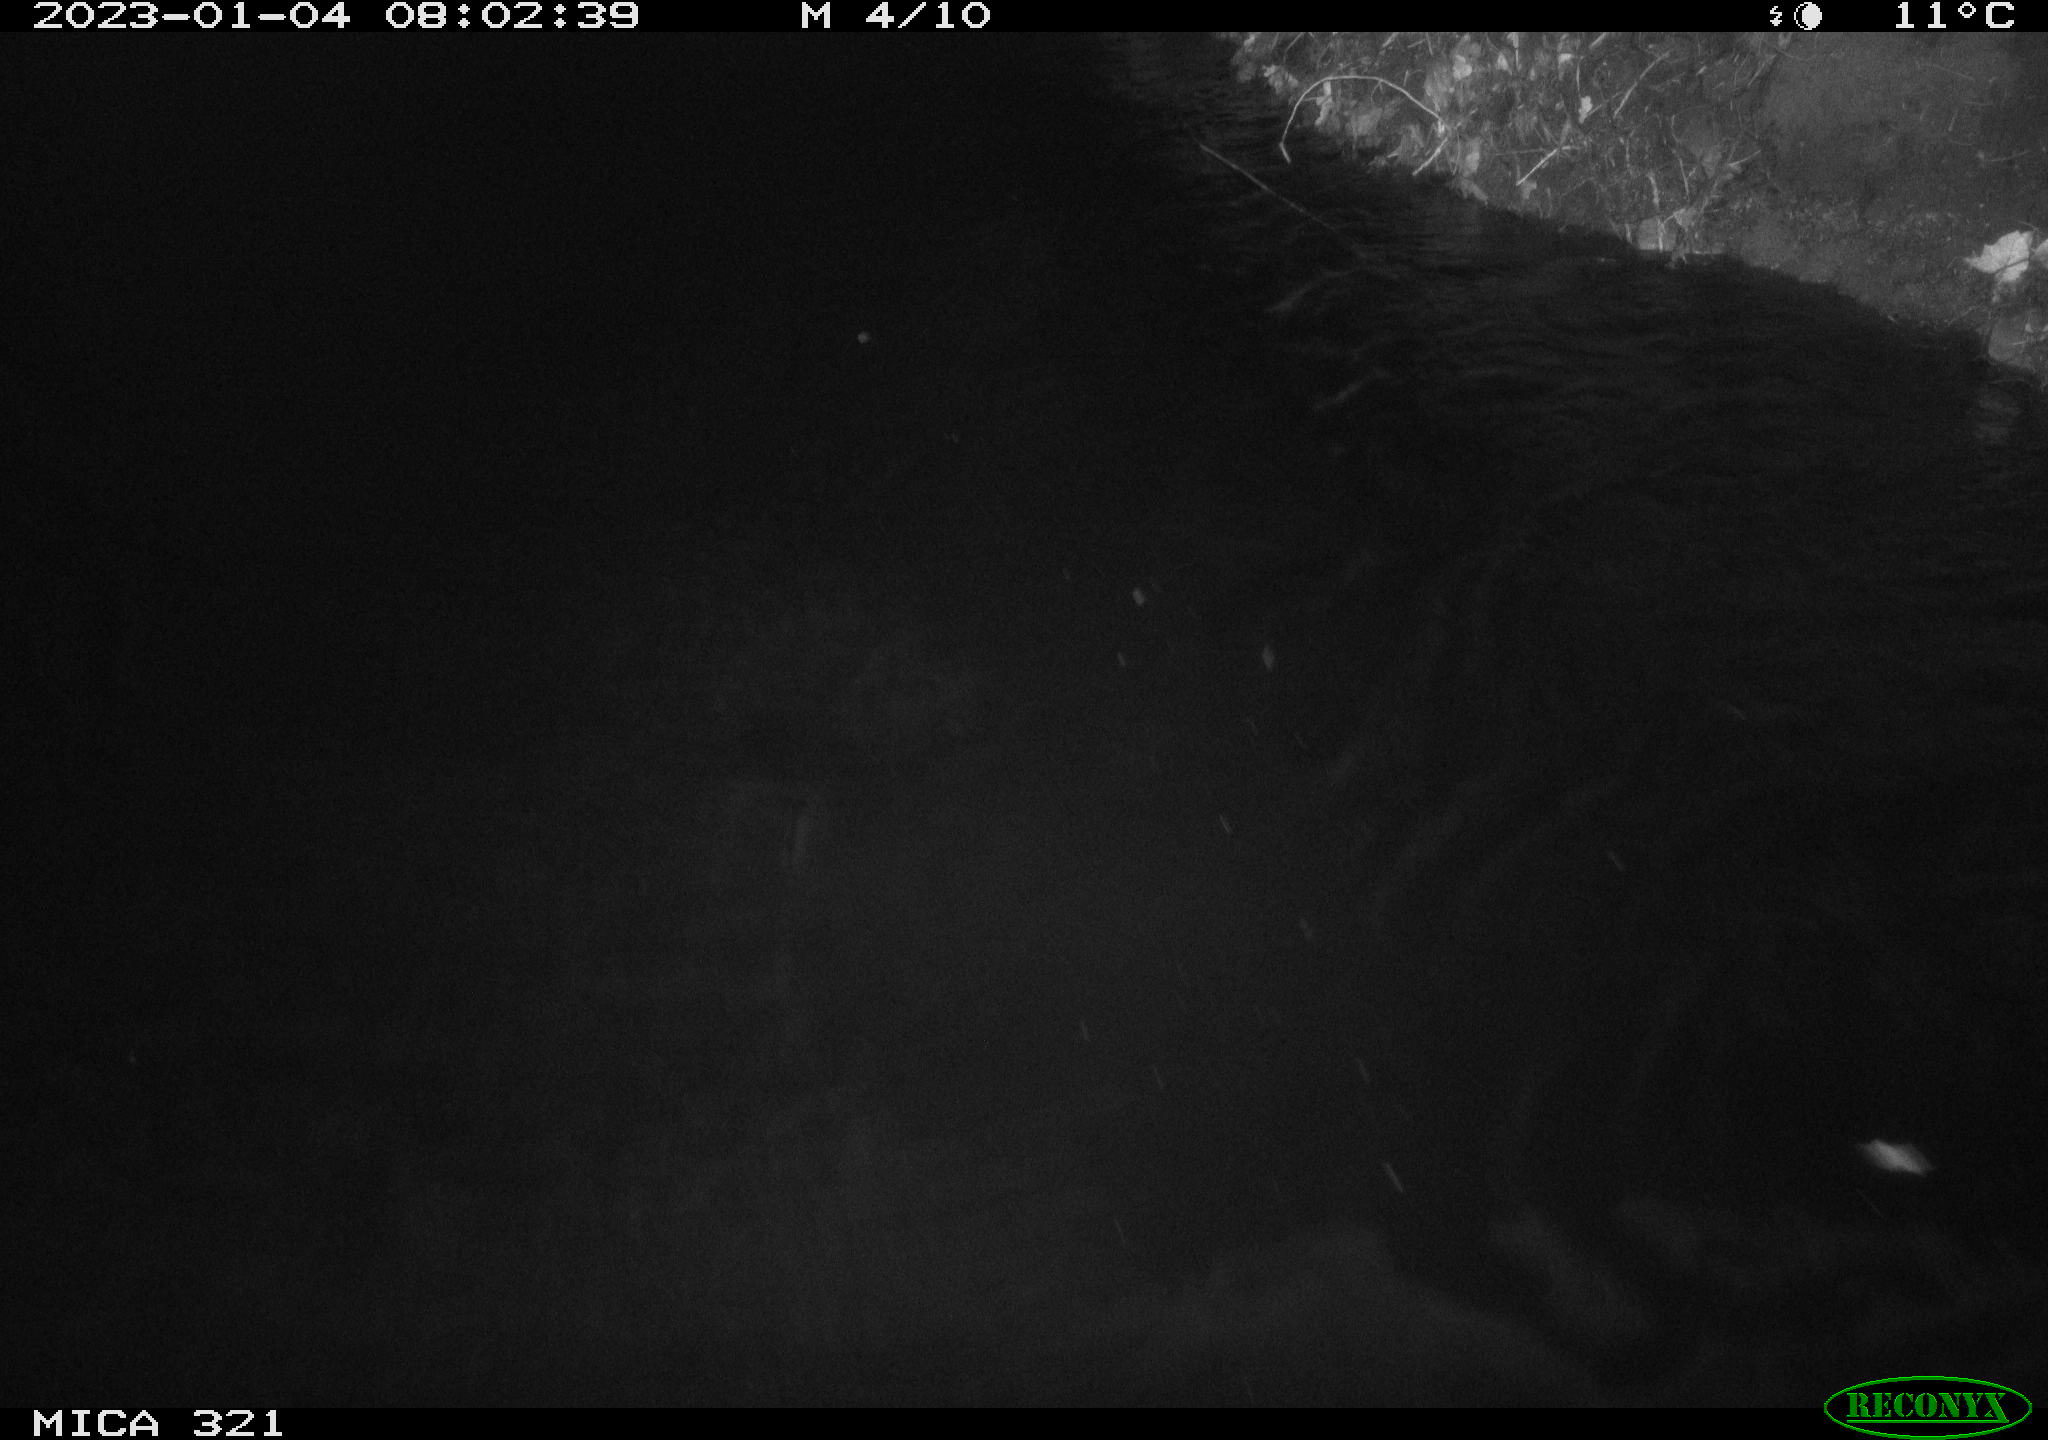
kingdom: Animalia
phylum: Chordata
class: Mammalia
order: Rodentia
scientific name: Rodentia
